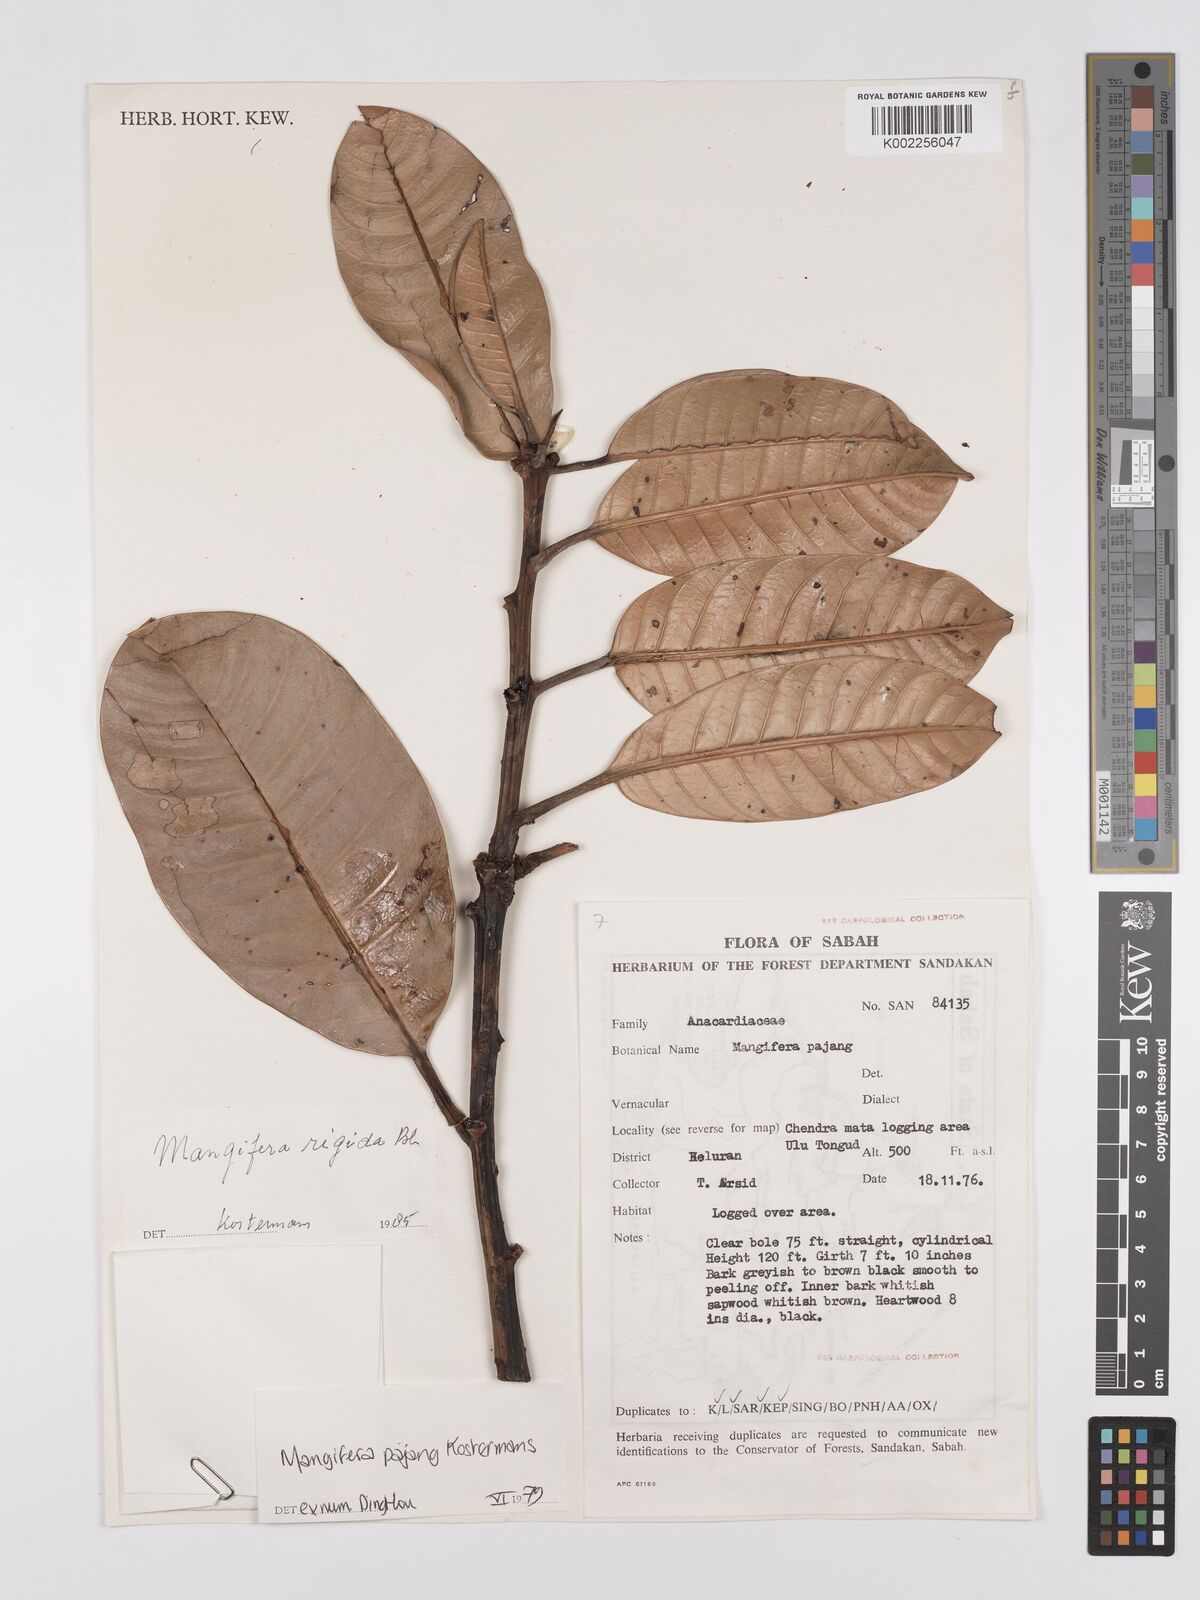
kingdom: Plantae
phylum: Tracheophyta
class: Magnoliopsida
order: Sapindales
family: Anacardiaceae
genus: Mangifera
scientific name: Mangifera pajang
